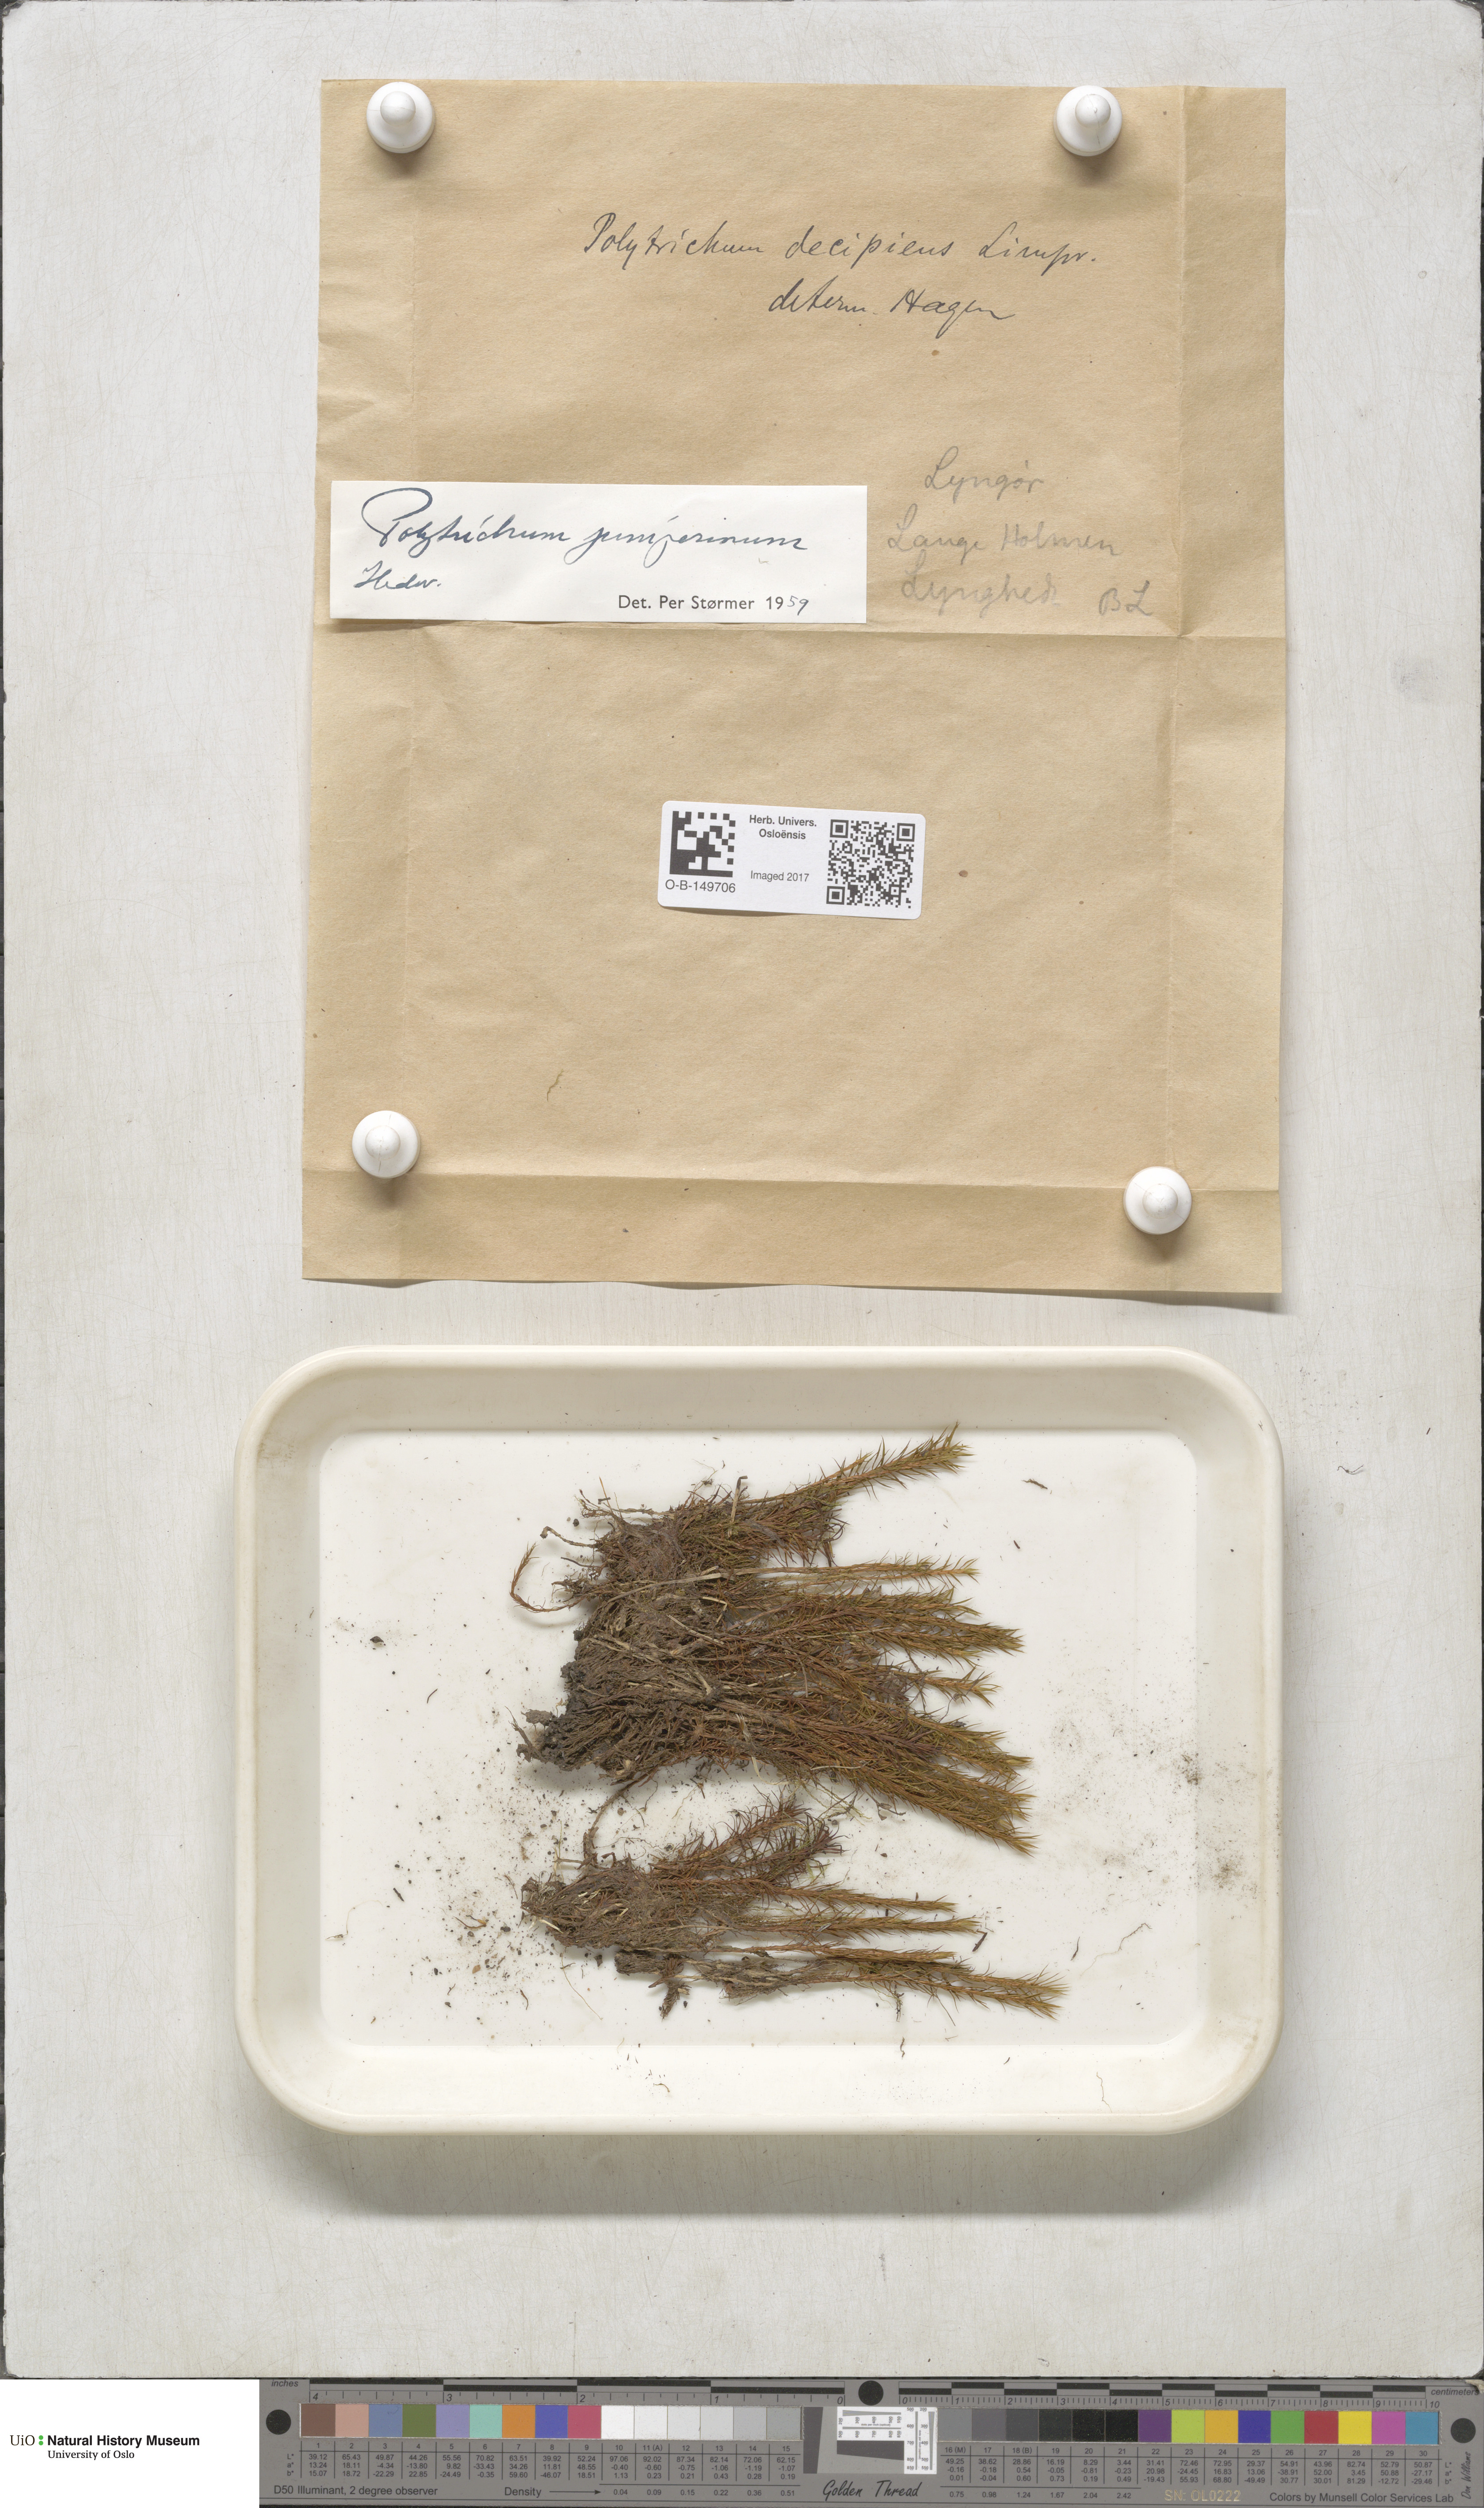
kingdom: Plantae
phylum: Bryophyta
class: Polytrichopsida
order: Polytrichales
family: Polytrichaceae
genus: Polytrichum
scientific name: Polytrichum juniperinum
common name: Juniper haircap moss
